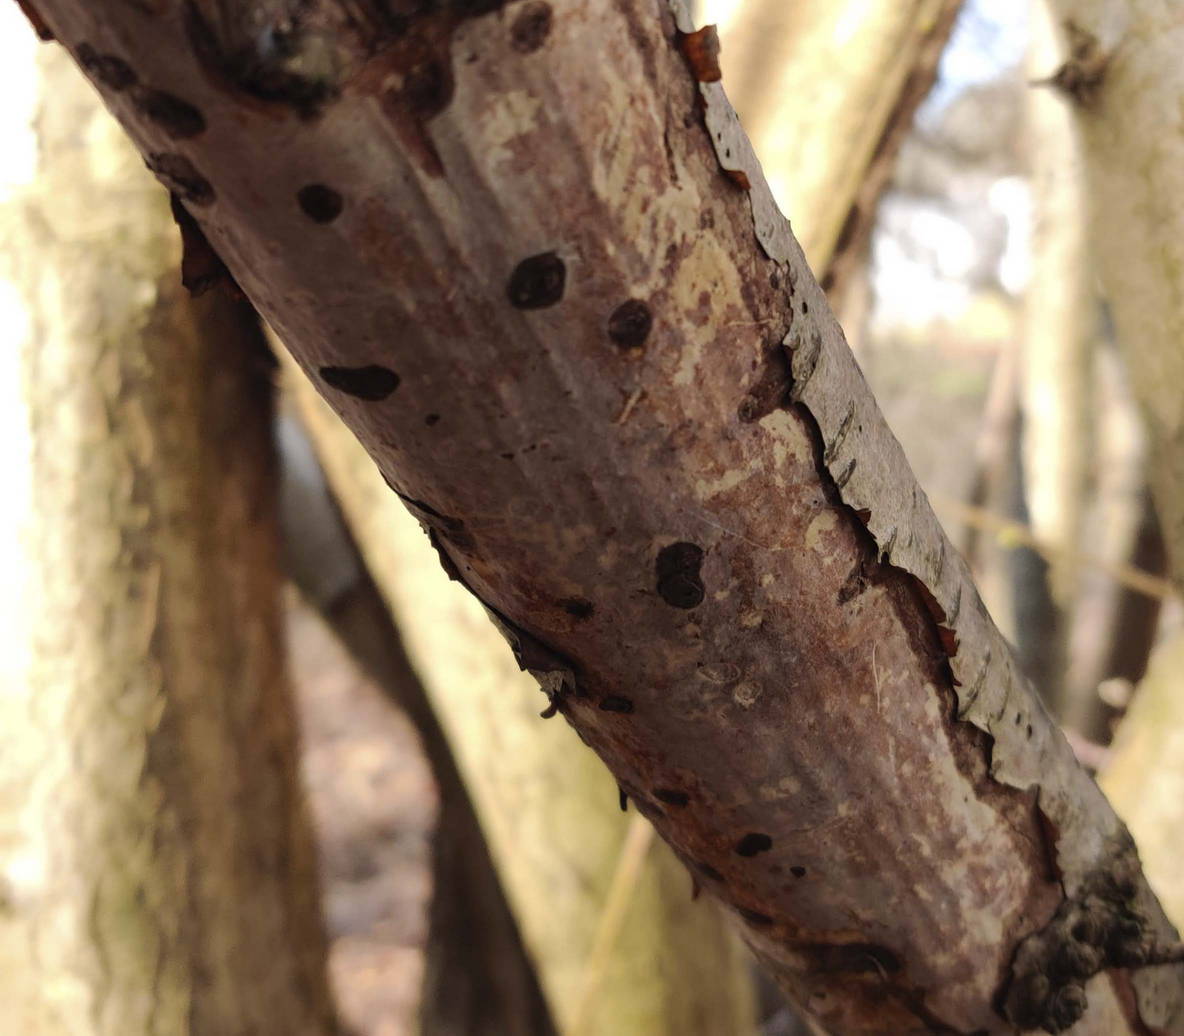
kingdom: Fungi
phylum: Basidiomycota
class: Agaricomycetes
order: Corticiales
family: Vuilleminiaceae
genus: Vuilleminia
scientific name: Vuilleminia coryli
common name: hassel-barksprænger
